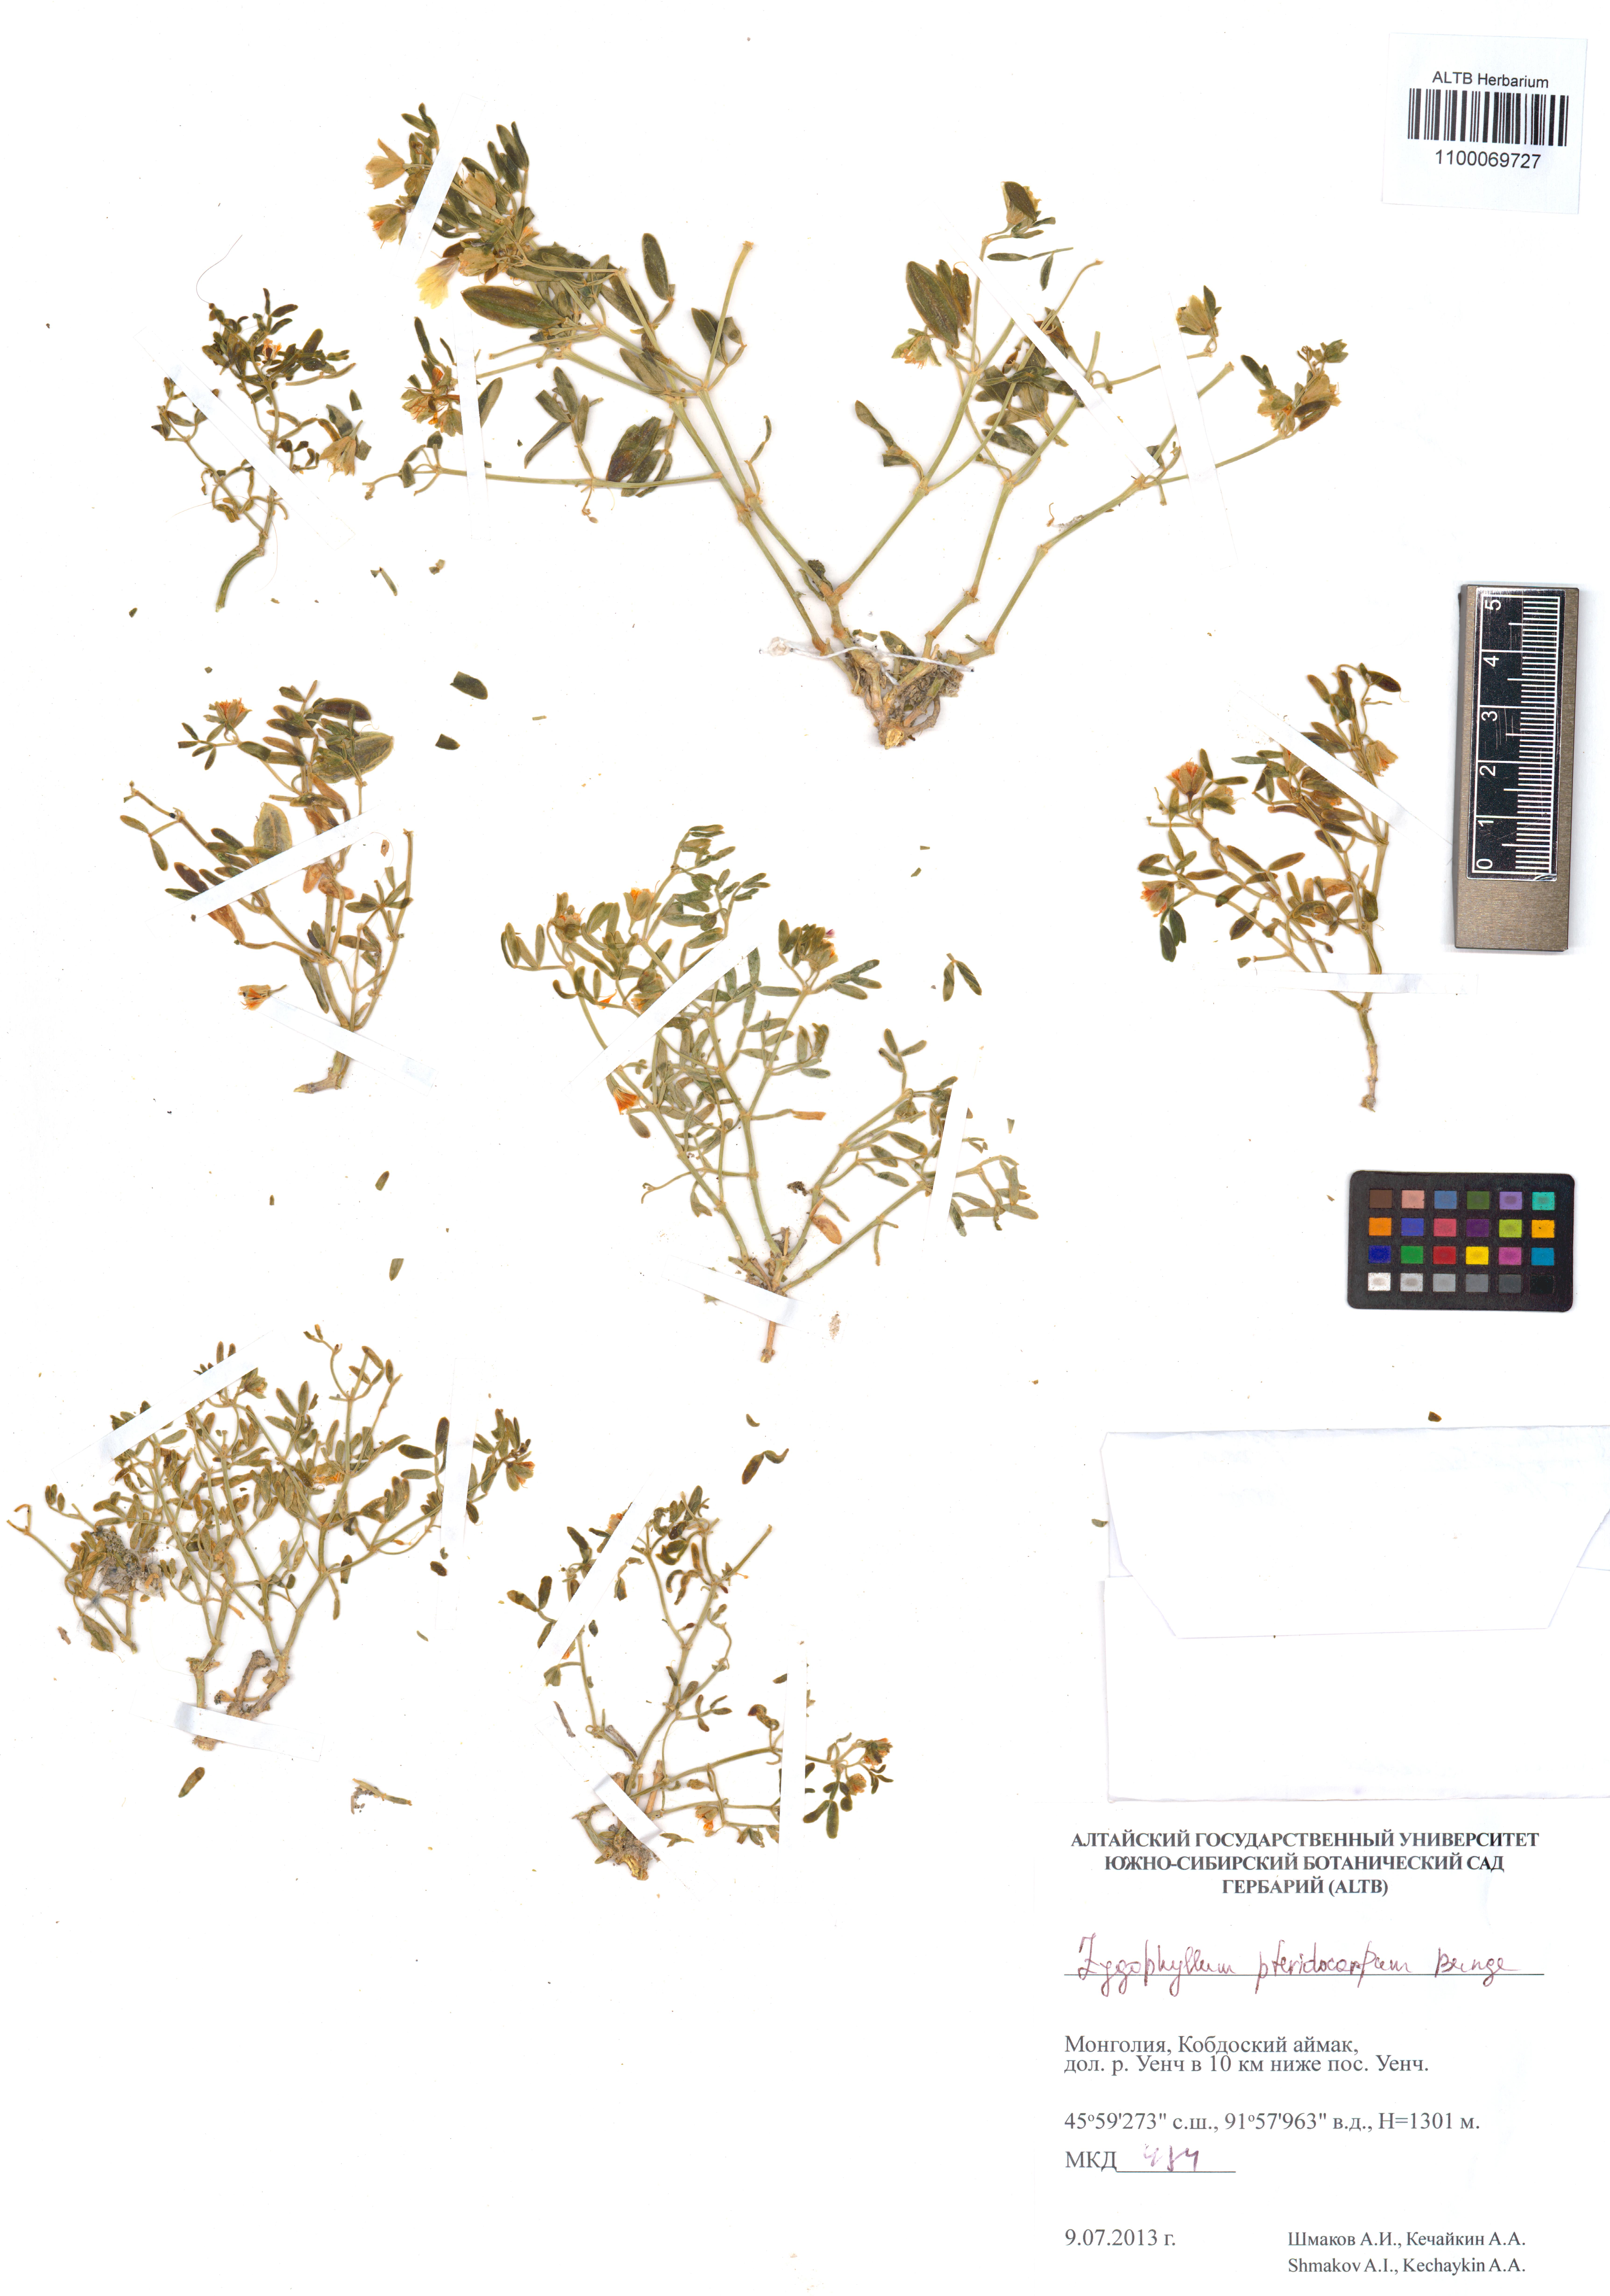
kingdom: Plantae
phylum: Tracheophyta
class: Magnoliopsida
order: Zygophyllales
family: Zygophyllaceae
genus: Zygophyllum
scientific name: Zygophyllum pterocarpum
